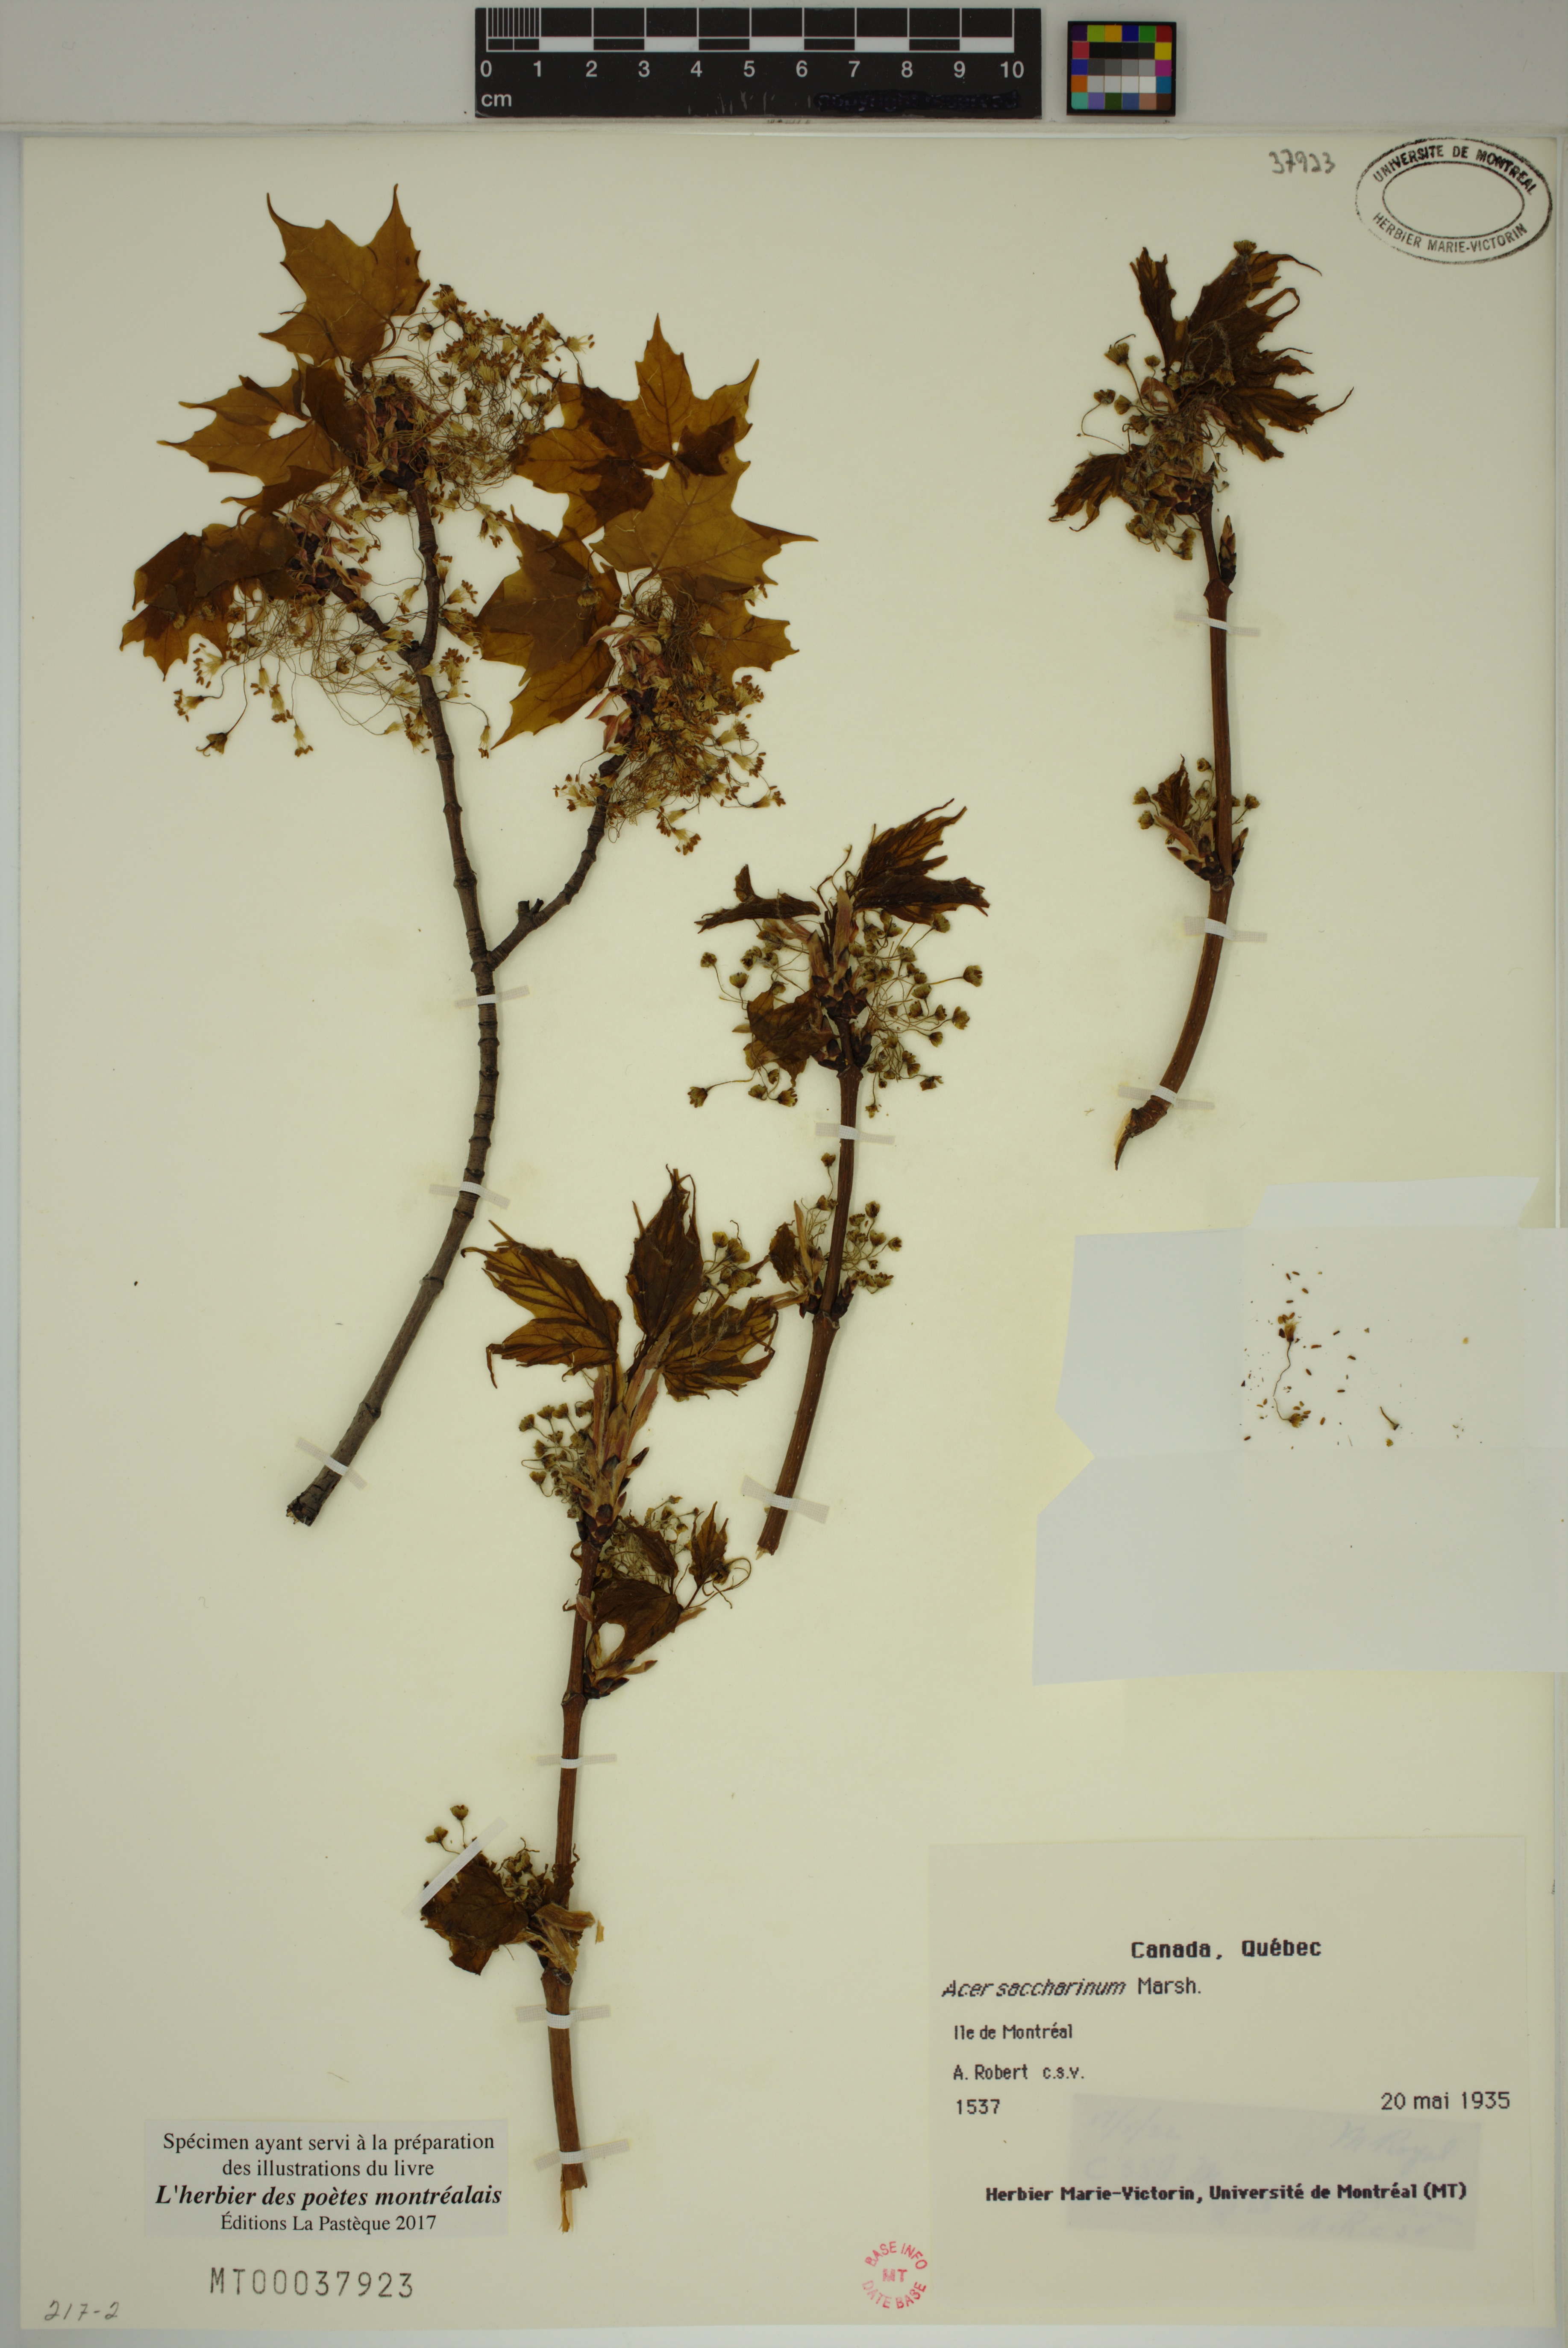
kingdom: Plantae
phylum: Tracheophyta
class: Magnoliopsida
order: Sapindales
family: Sapindaceae
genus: Acer
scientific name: Acer saccharinum
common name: Silver maple
